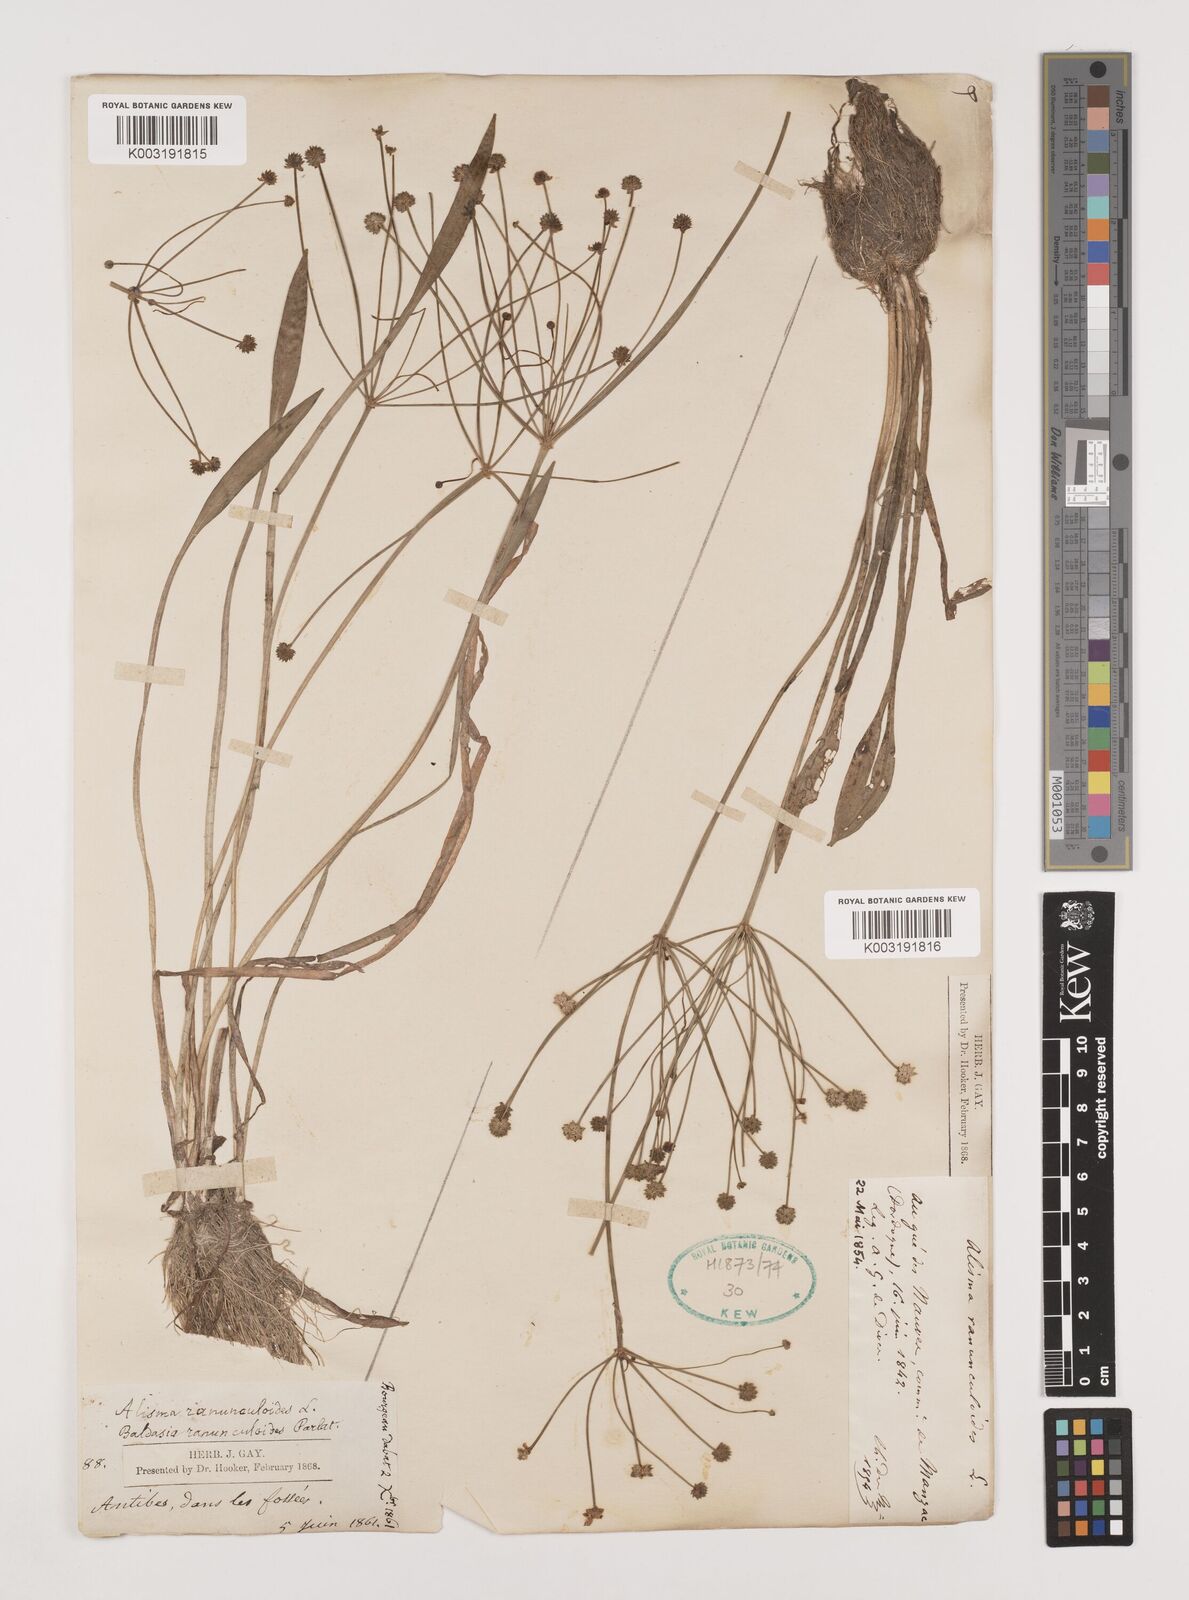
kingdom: Plantae
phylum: Tracheophyta
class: Liliopsida
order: Alismatales
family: Alismataceae
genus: Baldellia
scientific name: Baldellia ranunculoides
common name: Lesser water-plantain
